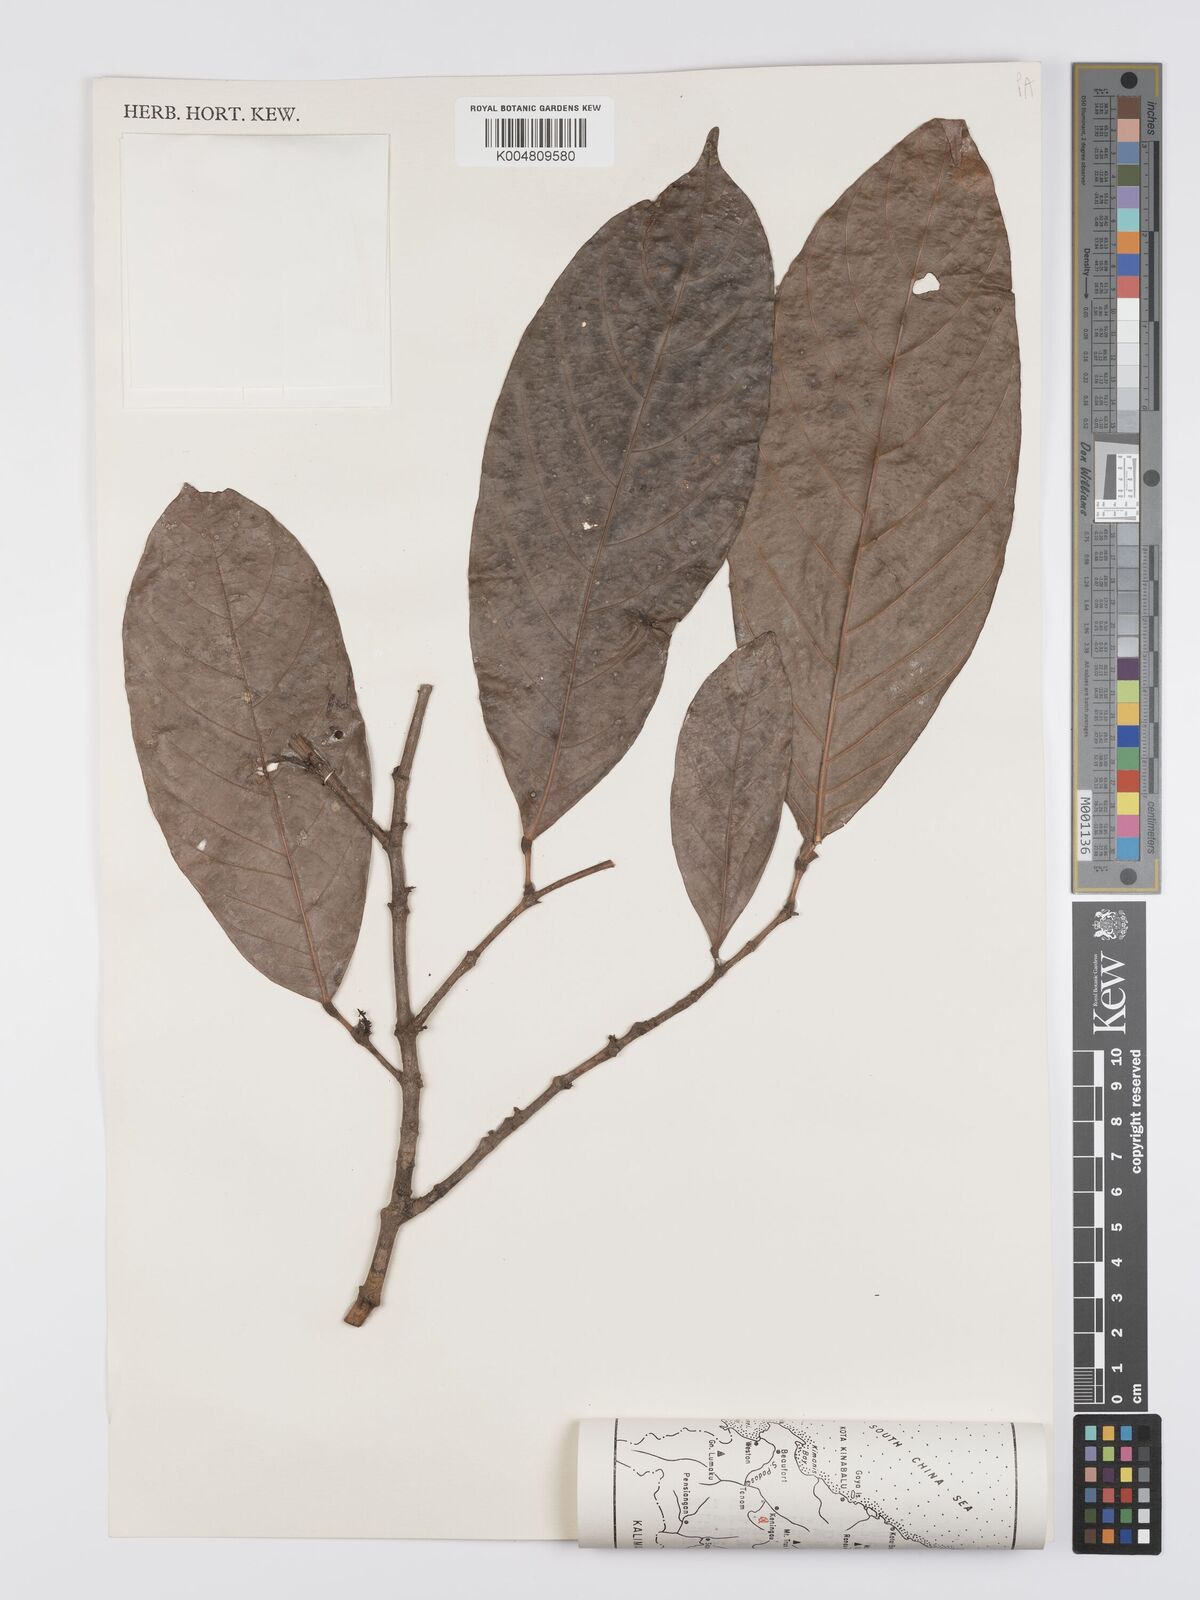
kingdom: Plantae
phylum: Tracheophyta
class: Magnoliopsida
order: Malpighiales
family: Euphorbiaceae
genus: Hancea
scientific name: Hancea penangensis
